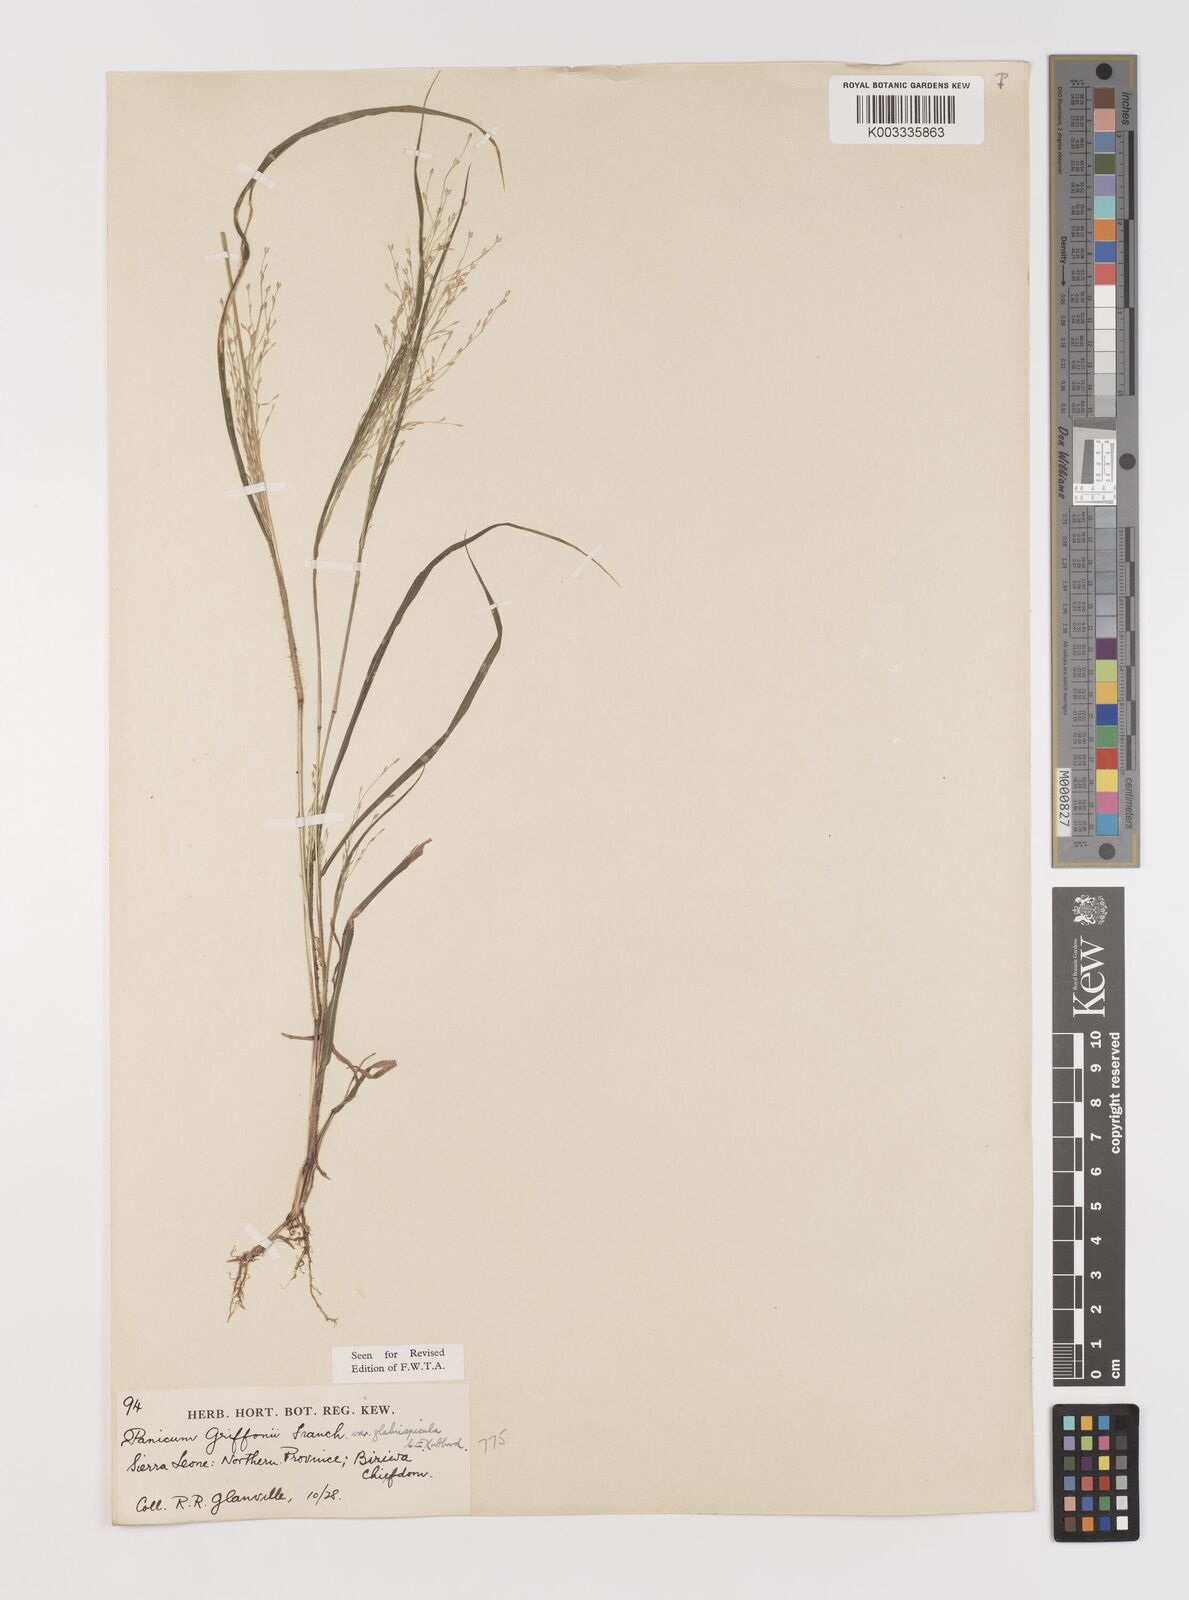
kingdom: Plantae
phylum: Tracheophyta
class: Liliopsida
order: Poales
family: Poaceae
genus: Panicum
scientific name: Panicum griffonii
